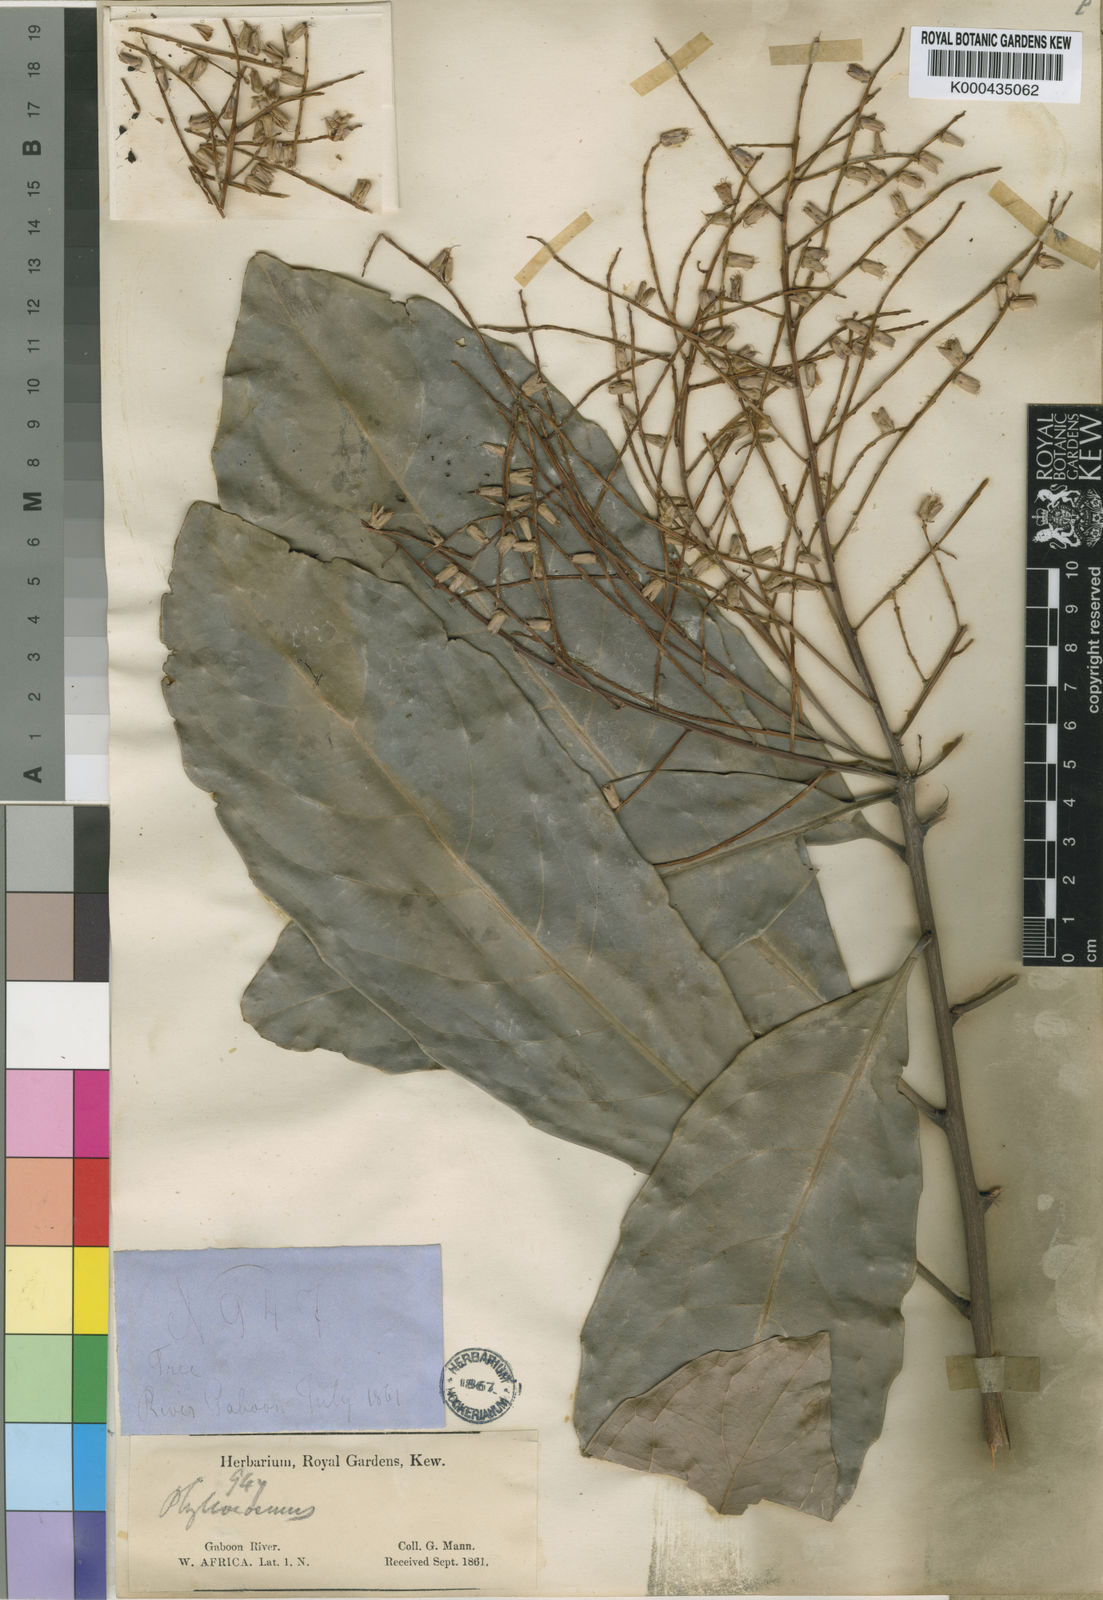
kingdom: Plantae
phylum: Tracheophyta
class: Magnoliopsida
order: Malpighiales
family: Ixonanthaceae
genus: Phyllocosmus
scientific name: Phyllocosmus sessiliflorus
